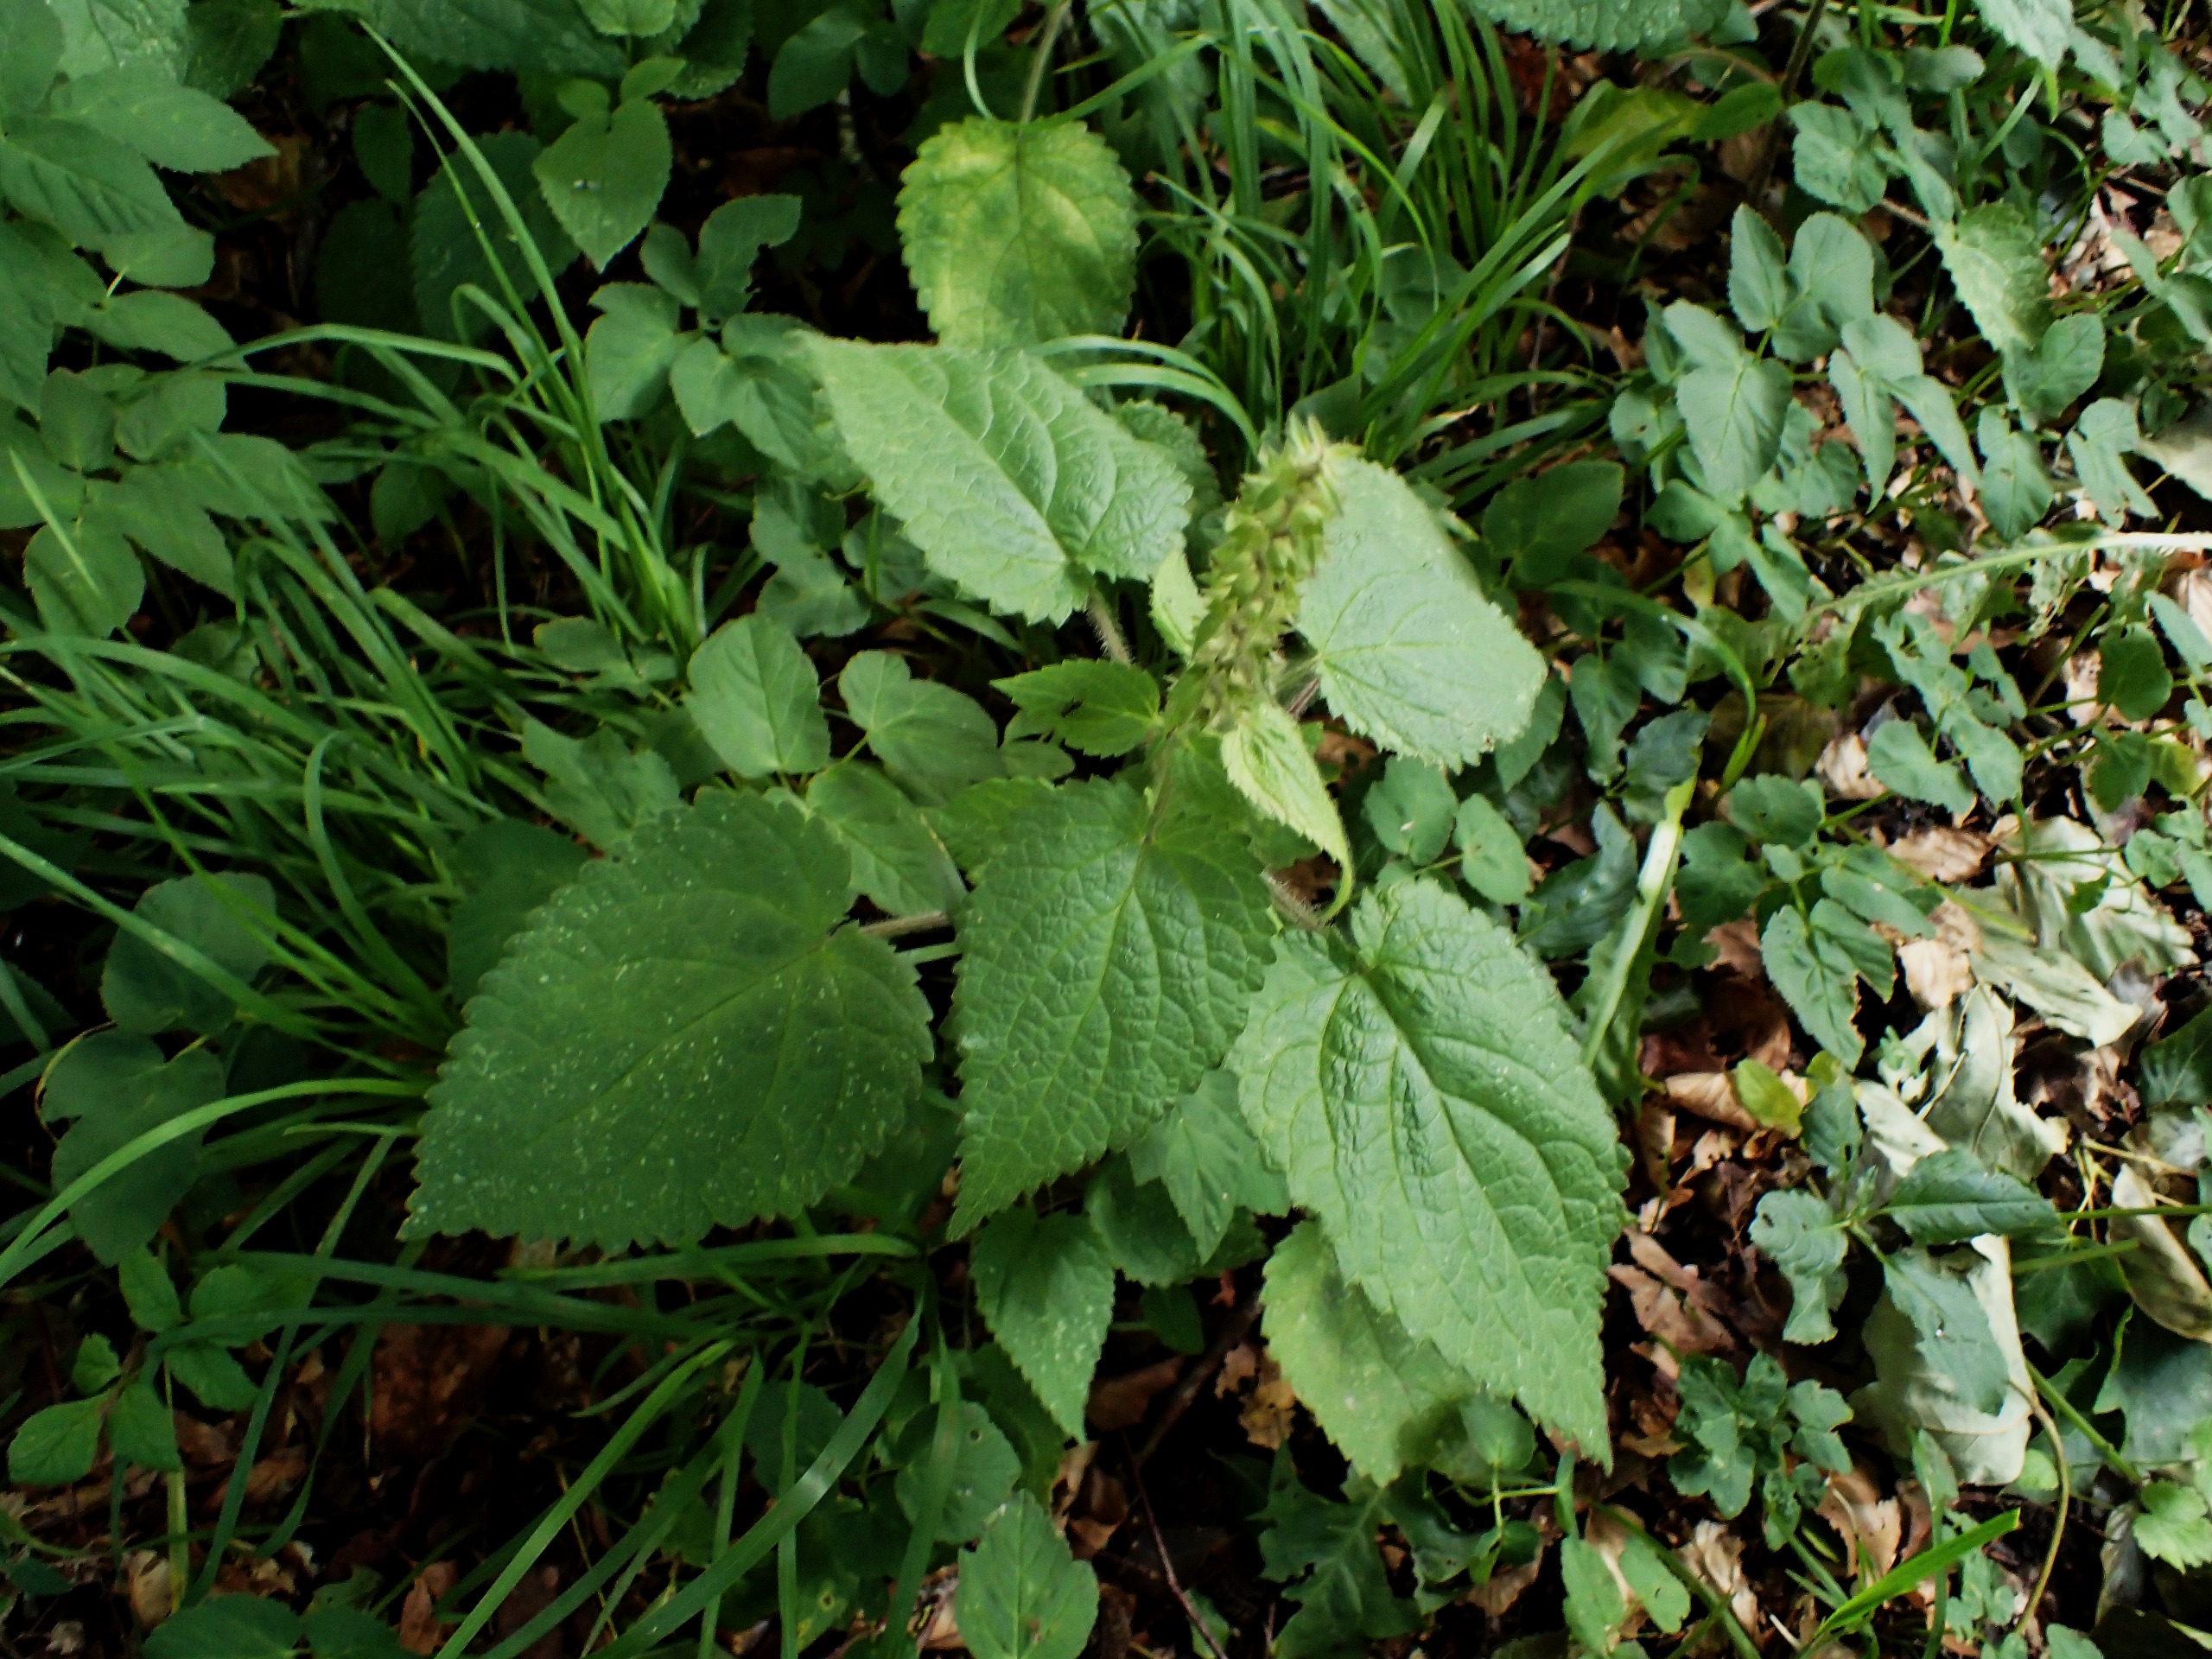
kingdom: Plantae
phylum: Tracheophyta
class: Magnoliopsida
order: Lamiales
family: Lamiaceae
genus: Stachys
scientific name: Stachys sylvatica
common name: Skov-galtetand
